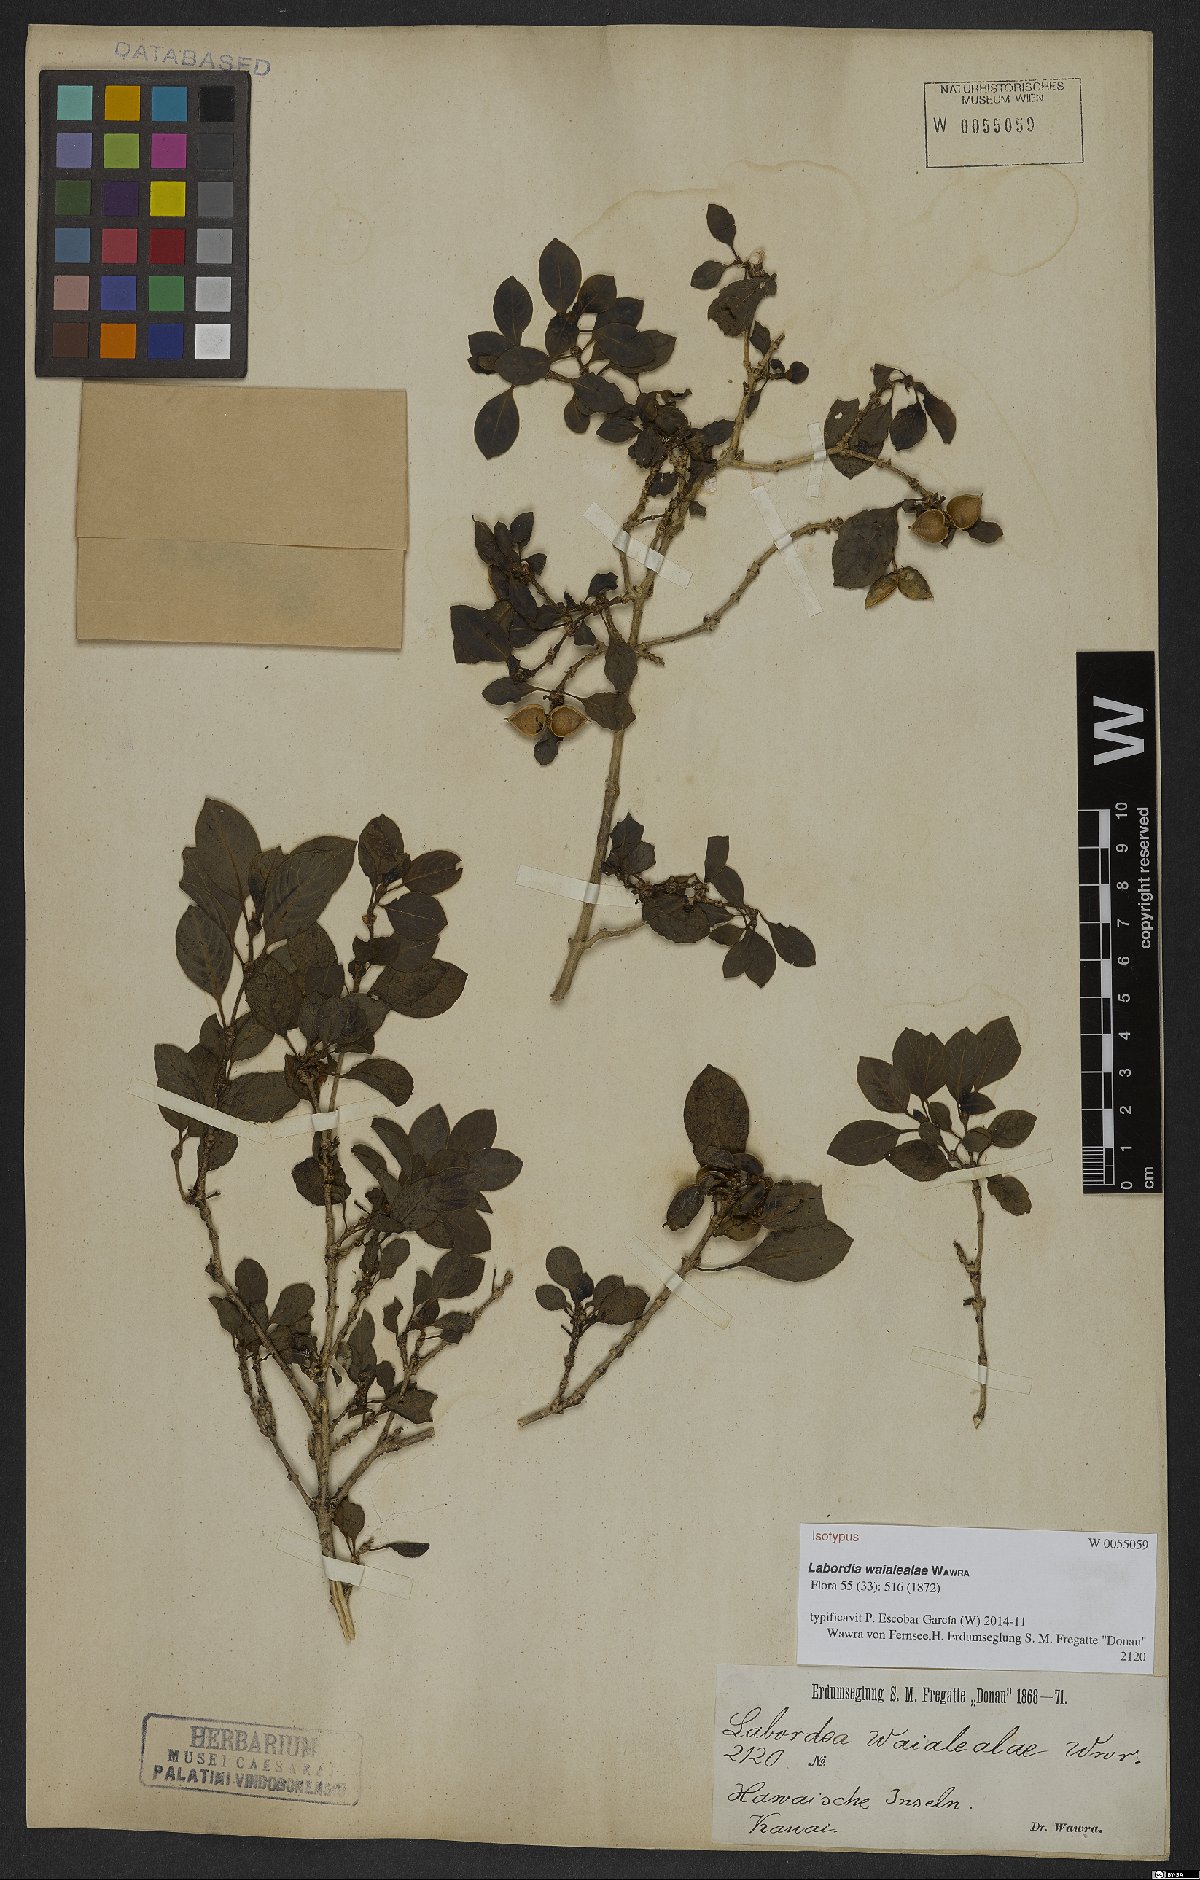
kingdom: Plantae
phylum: Tracheophyta
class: Magnoliopsida
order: Gentianales
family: Loganiaceae
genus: Geniostoma
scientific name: Geniostoma waialealae
